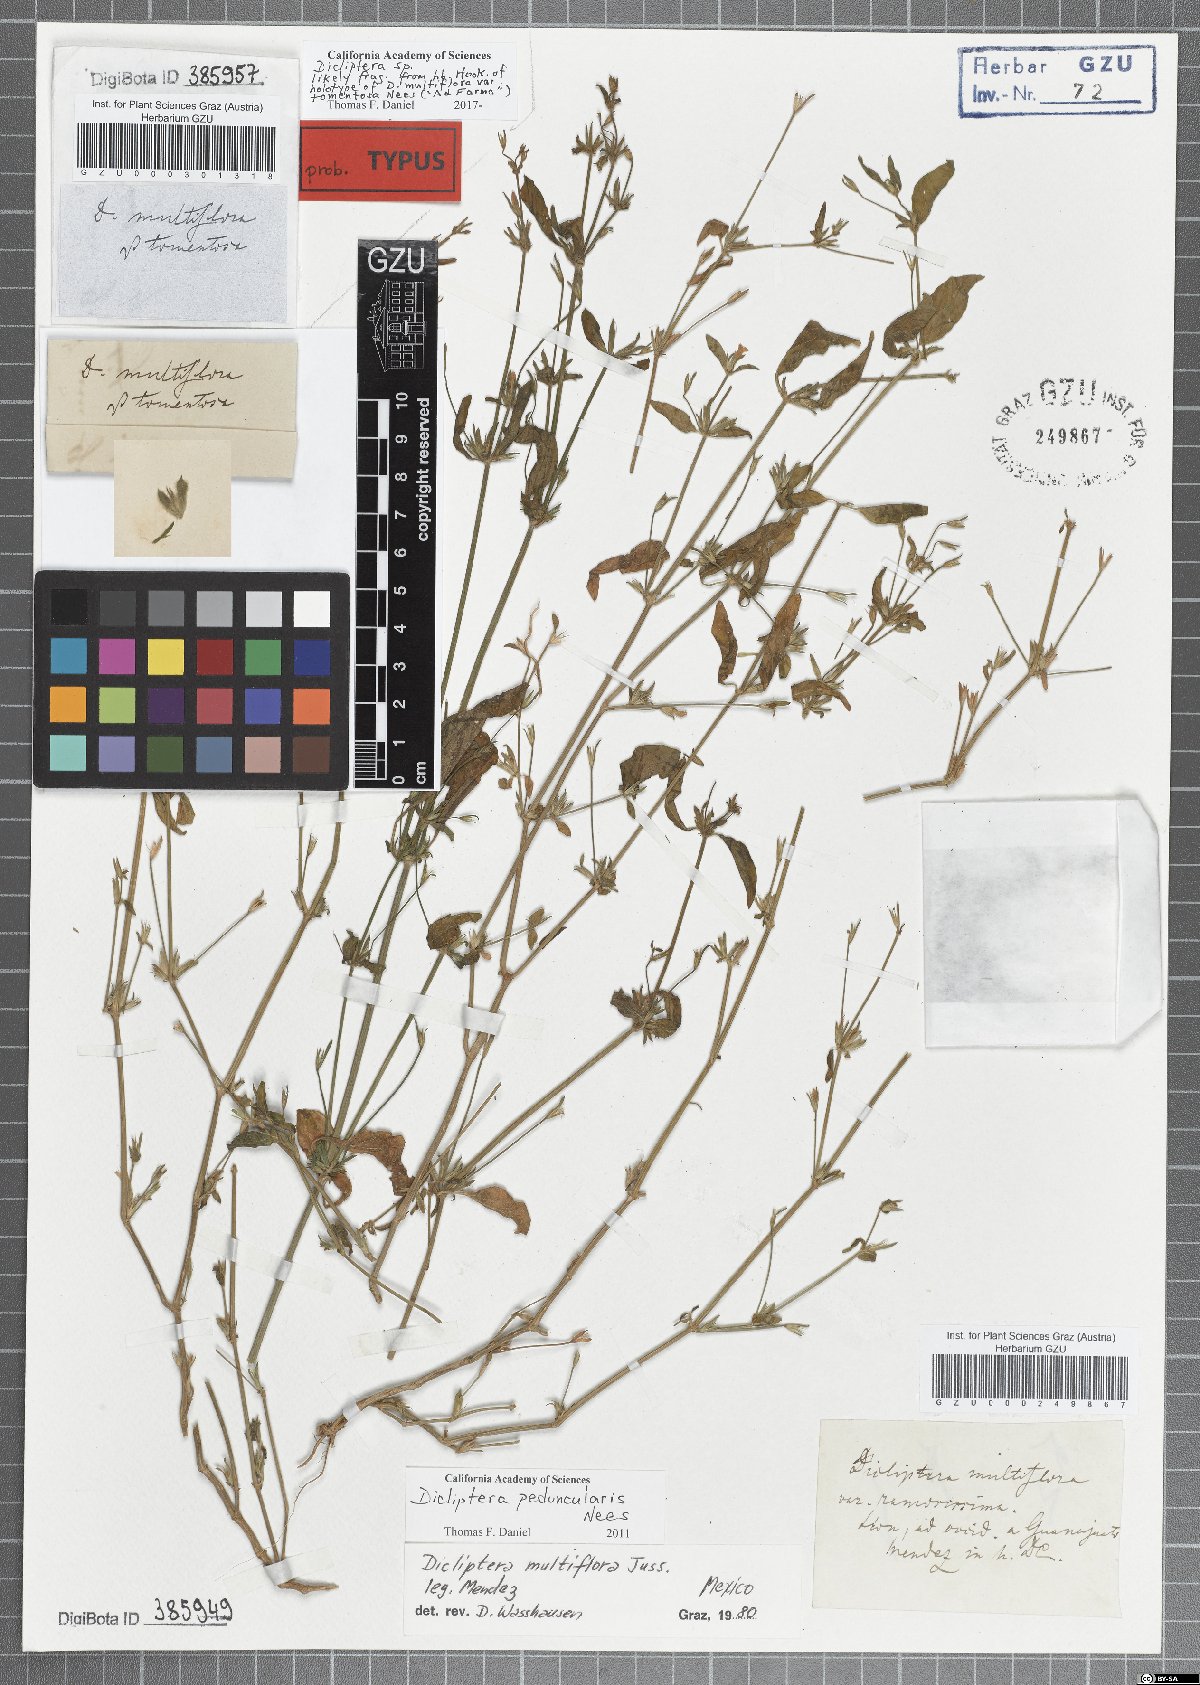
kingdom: Plantae
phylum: Tracheophyta
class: Magnoliopsida
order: Lamiales
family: Acanthaceae
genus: Dicliptera
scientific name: Dicliptera multiflora
